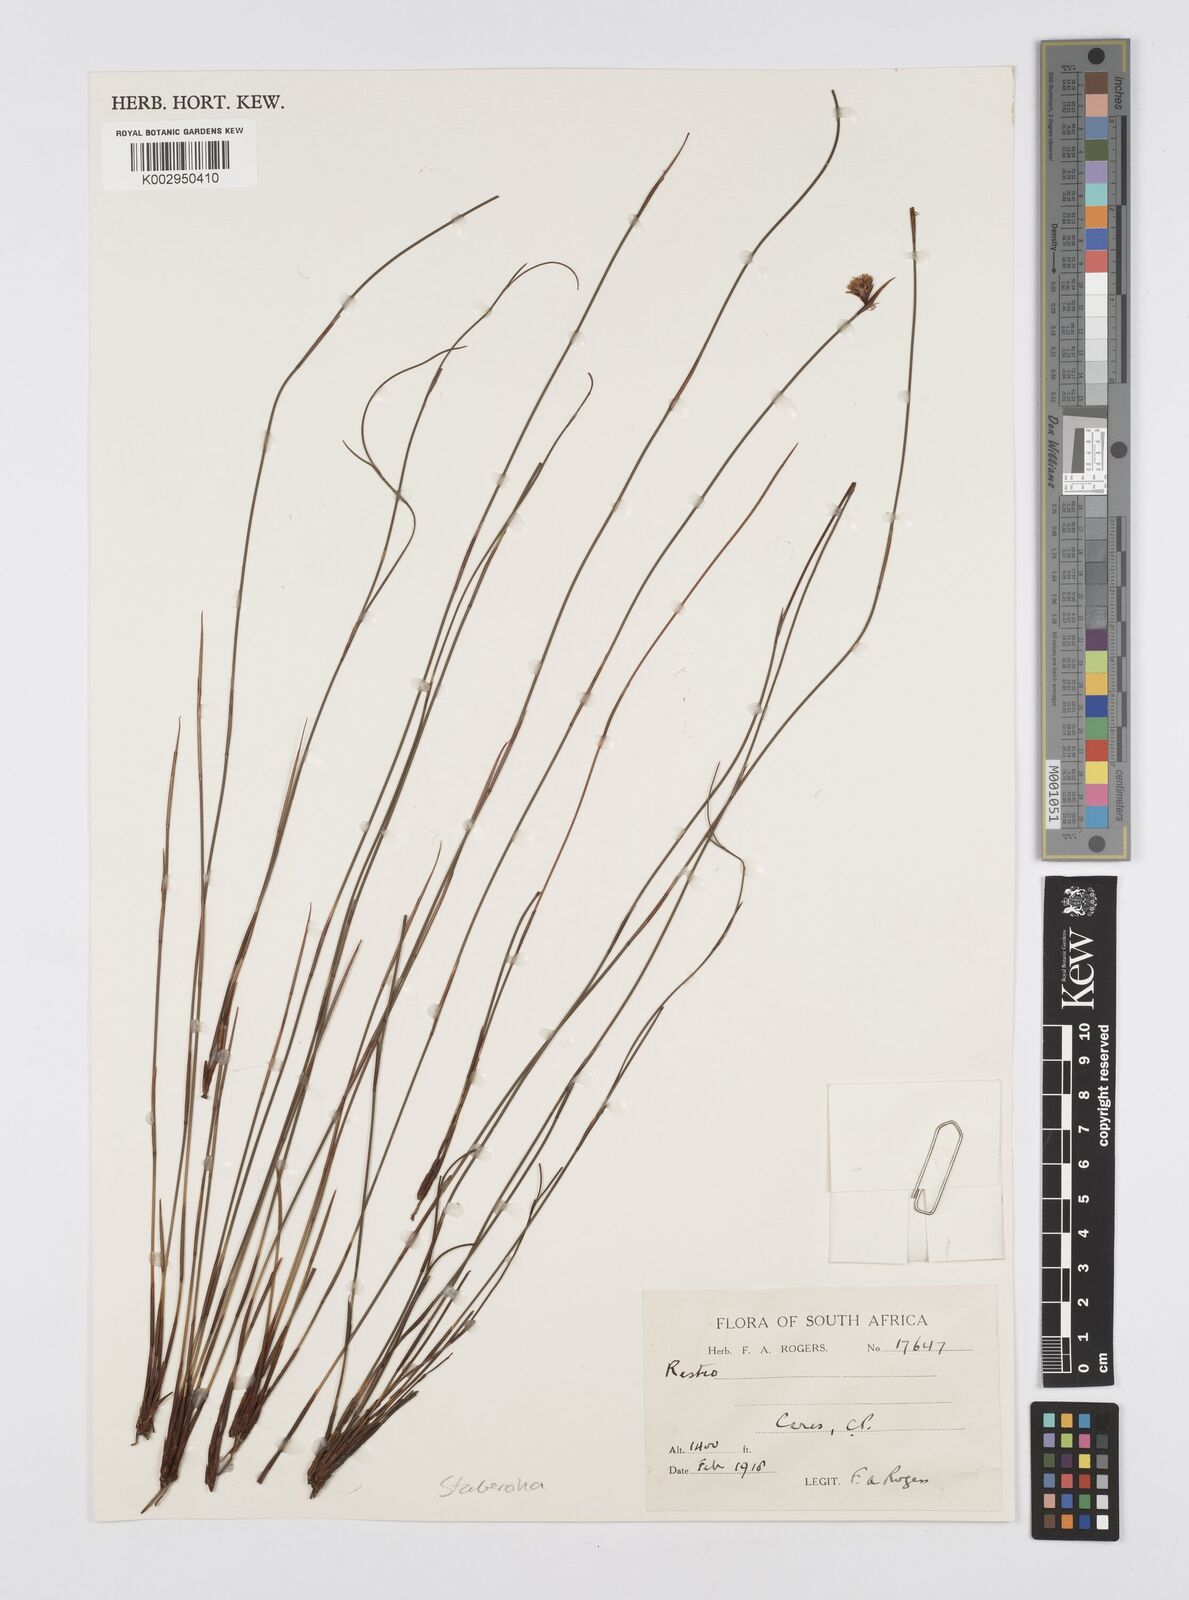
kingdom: Plantae
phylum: Tracheophyta
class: Liliopsida
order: Poales
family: Restionaceae
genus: Staberoha
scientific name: Staberoha
